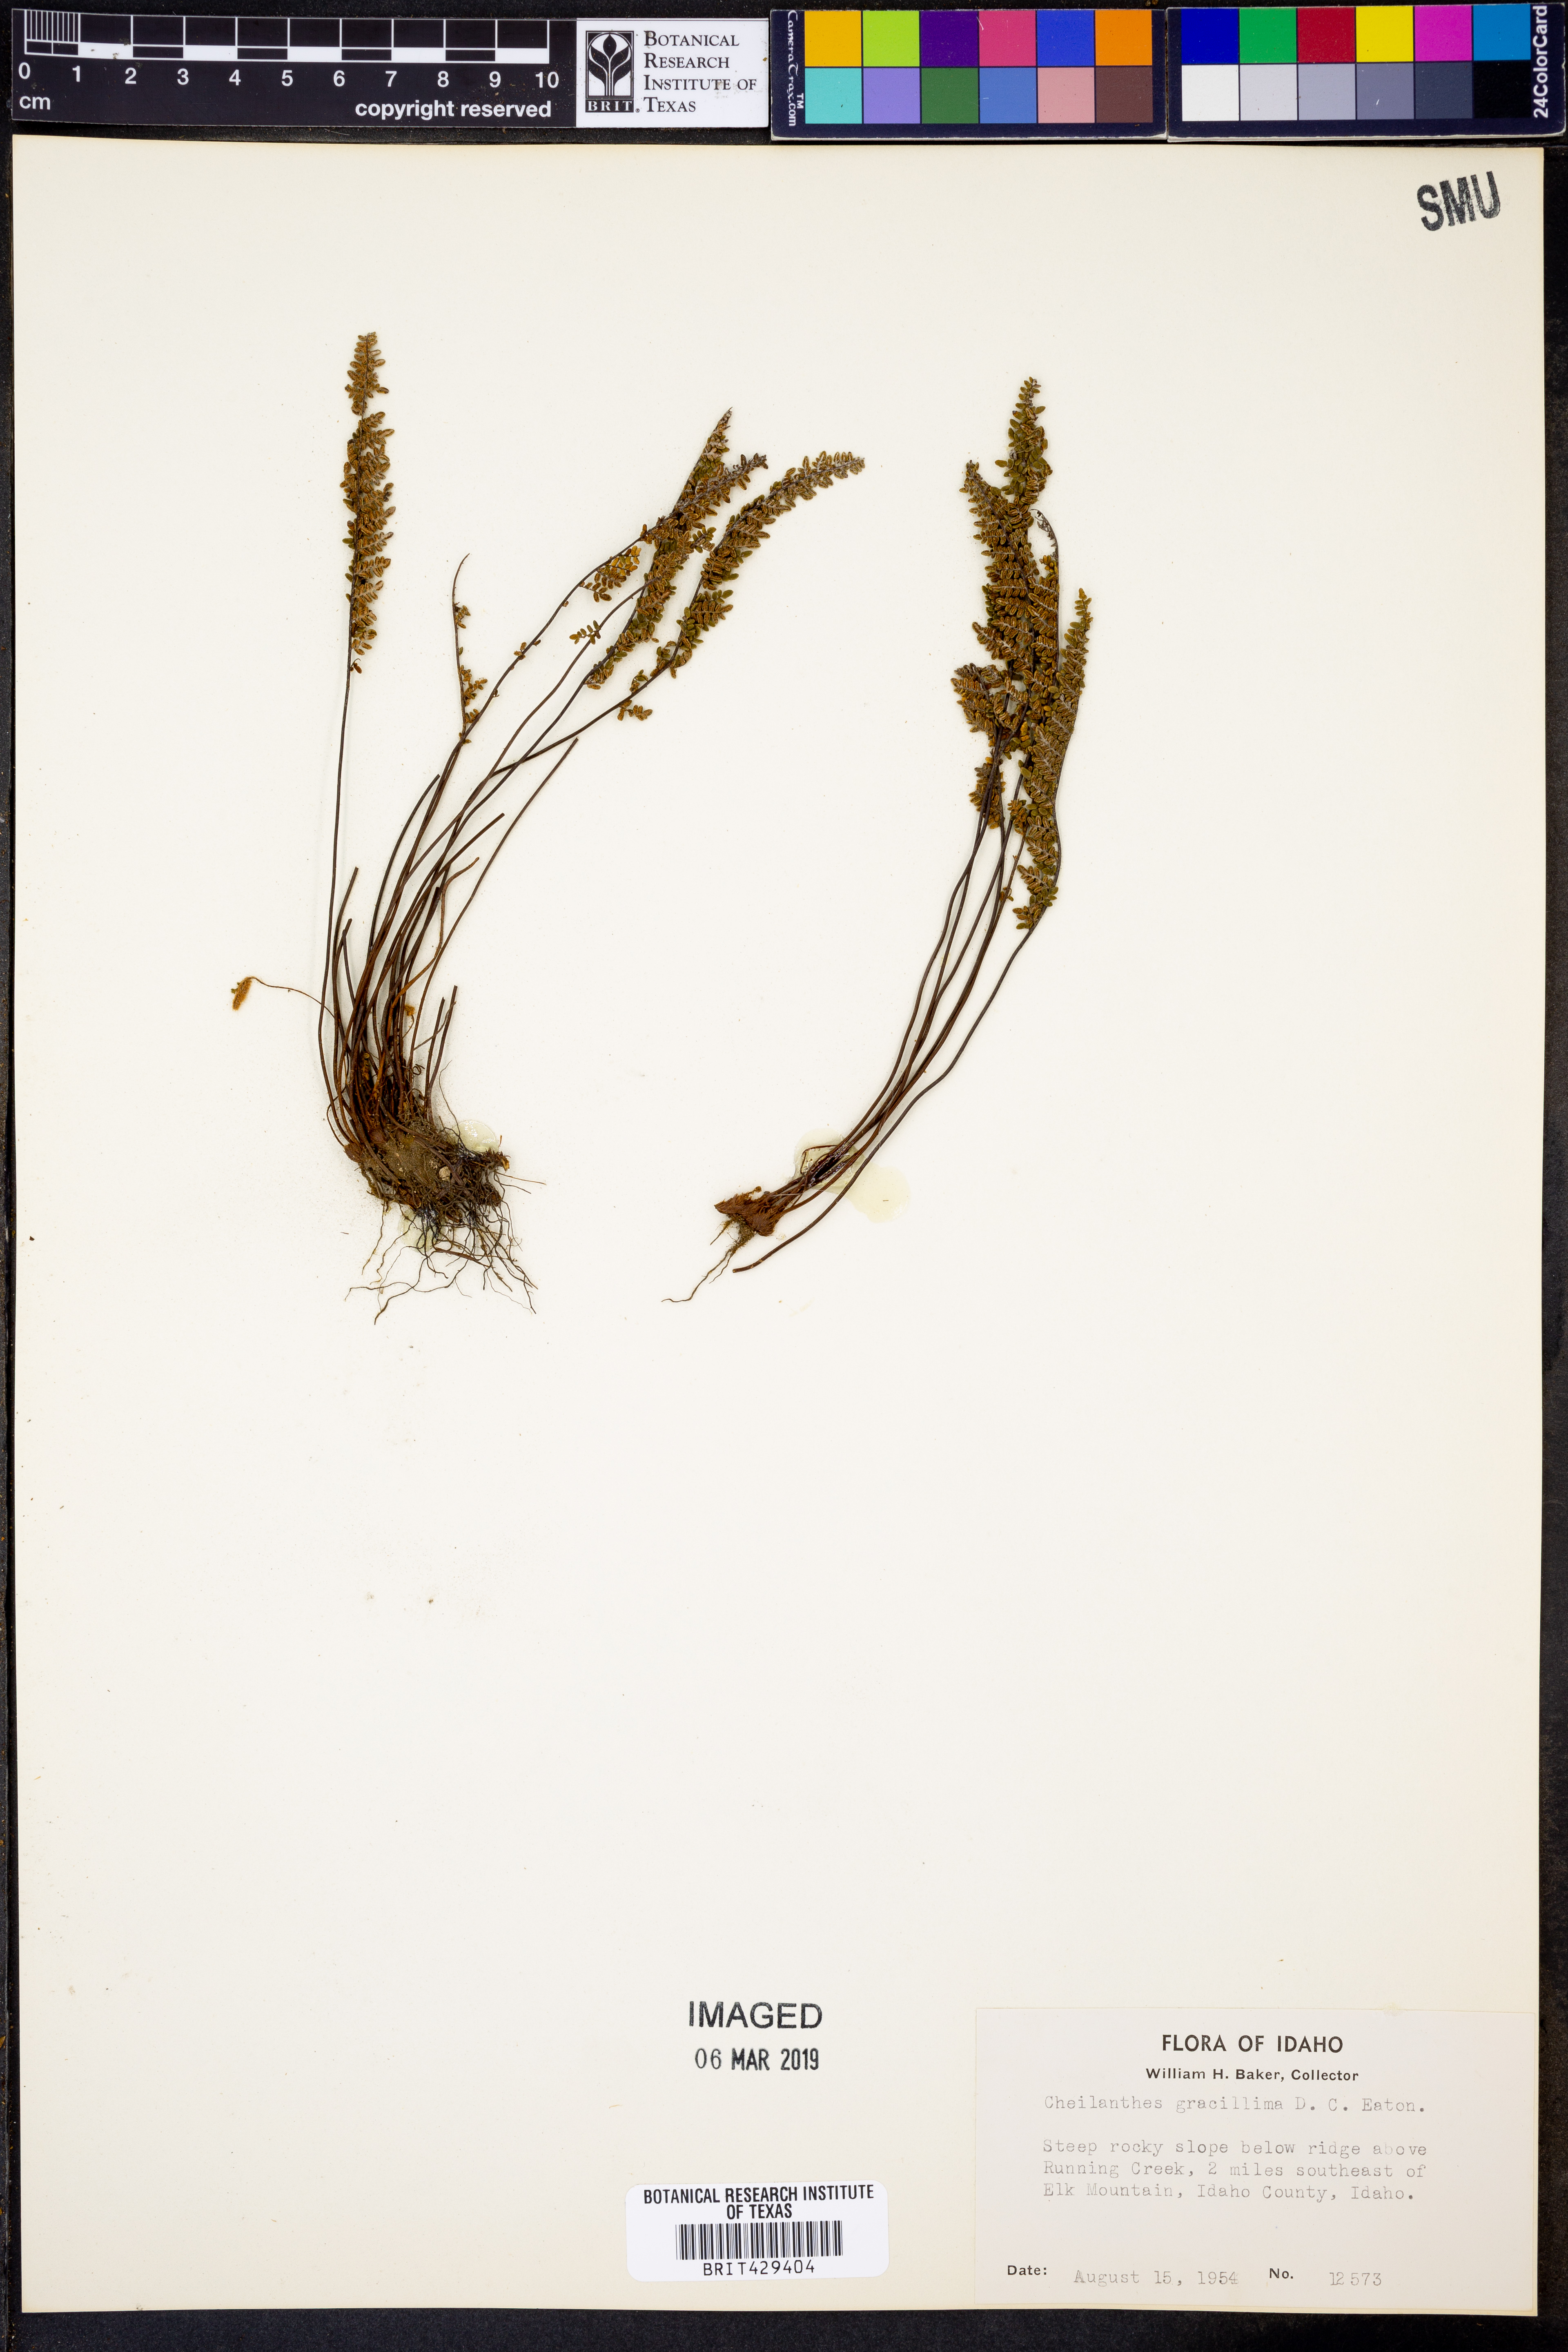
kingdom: Plantae
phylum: Tracheophyta
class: Polypodiopsida
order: Polypodiales
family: Pteridaceae
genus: Myriopteris
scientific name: Myriopteris gracillima
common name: Lace fern
